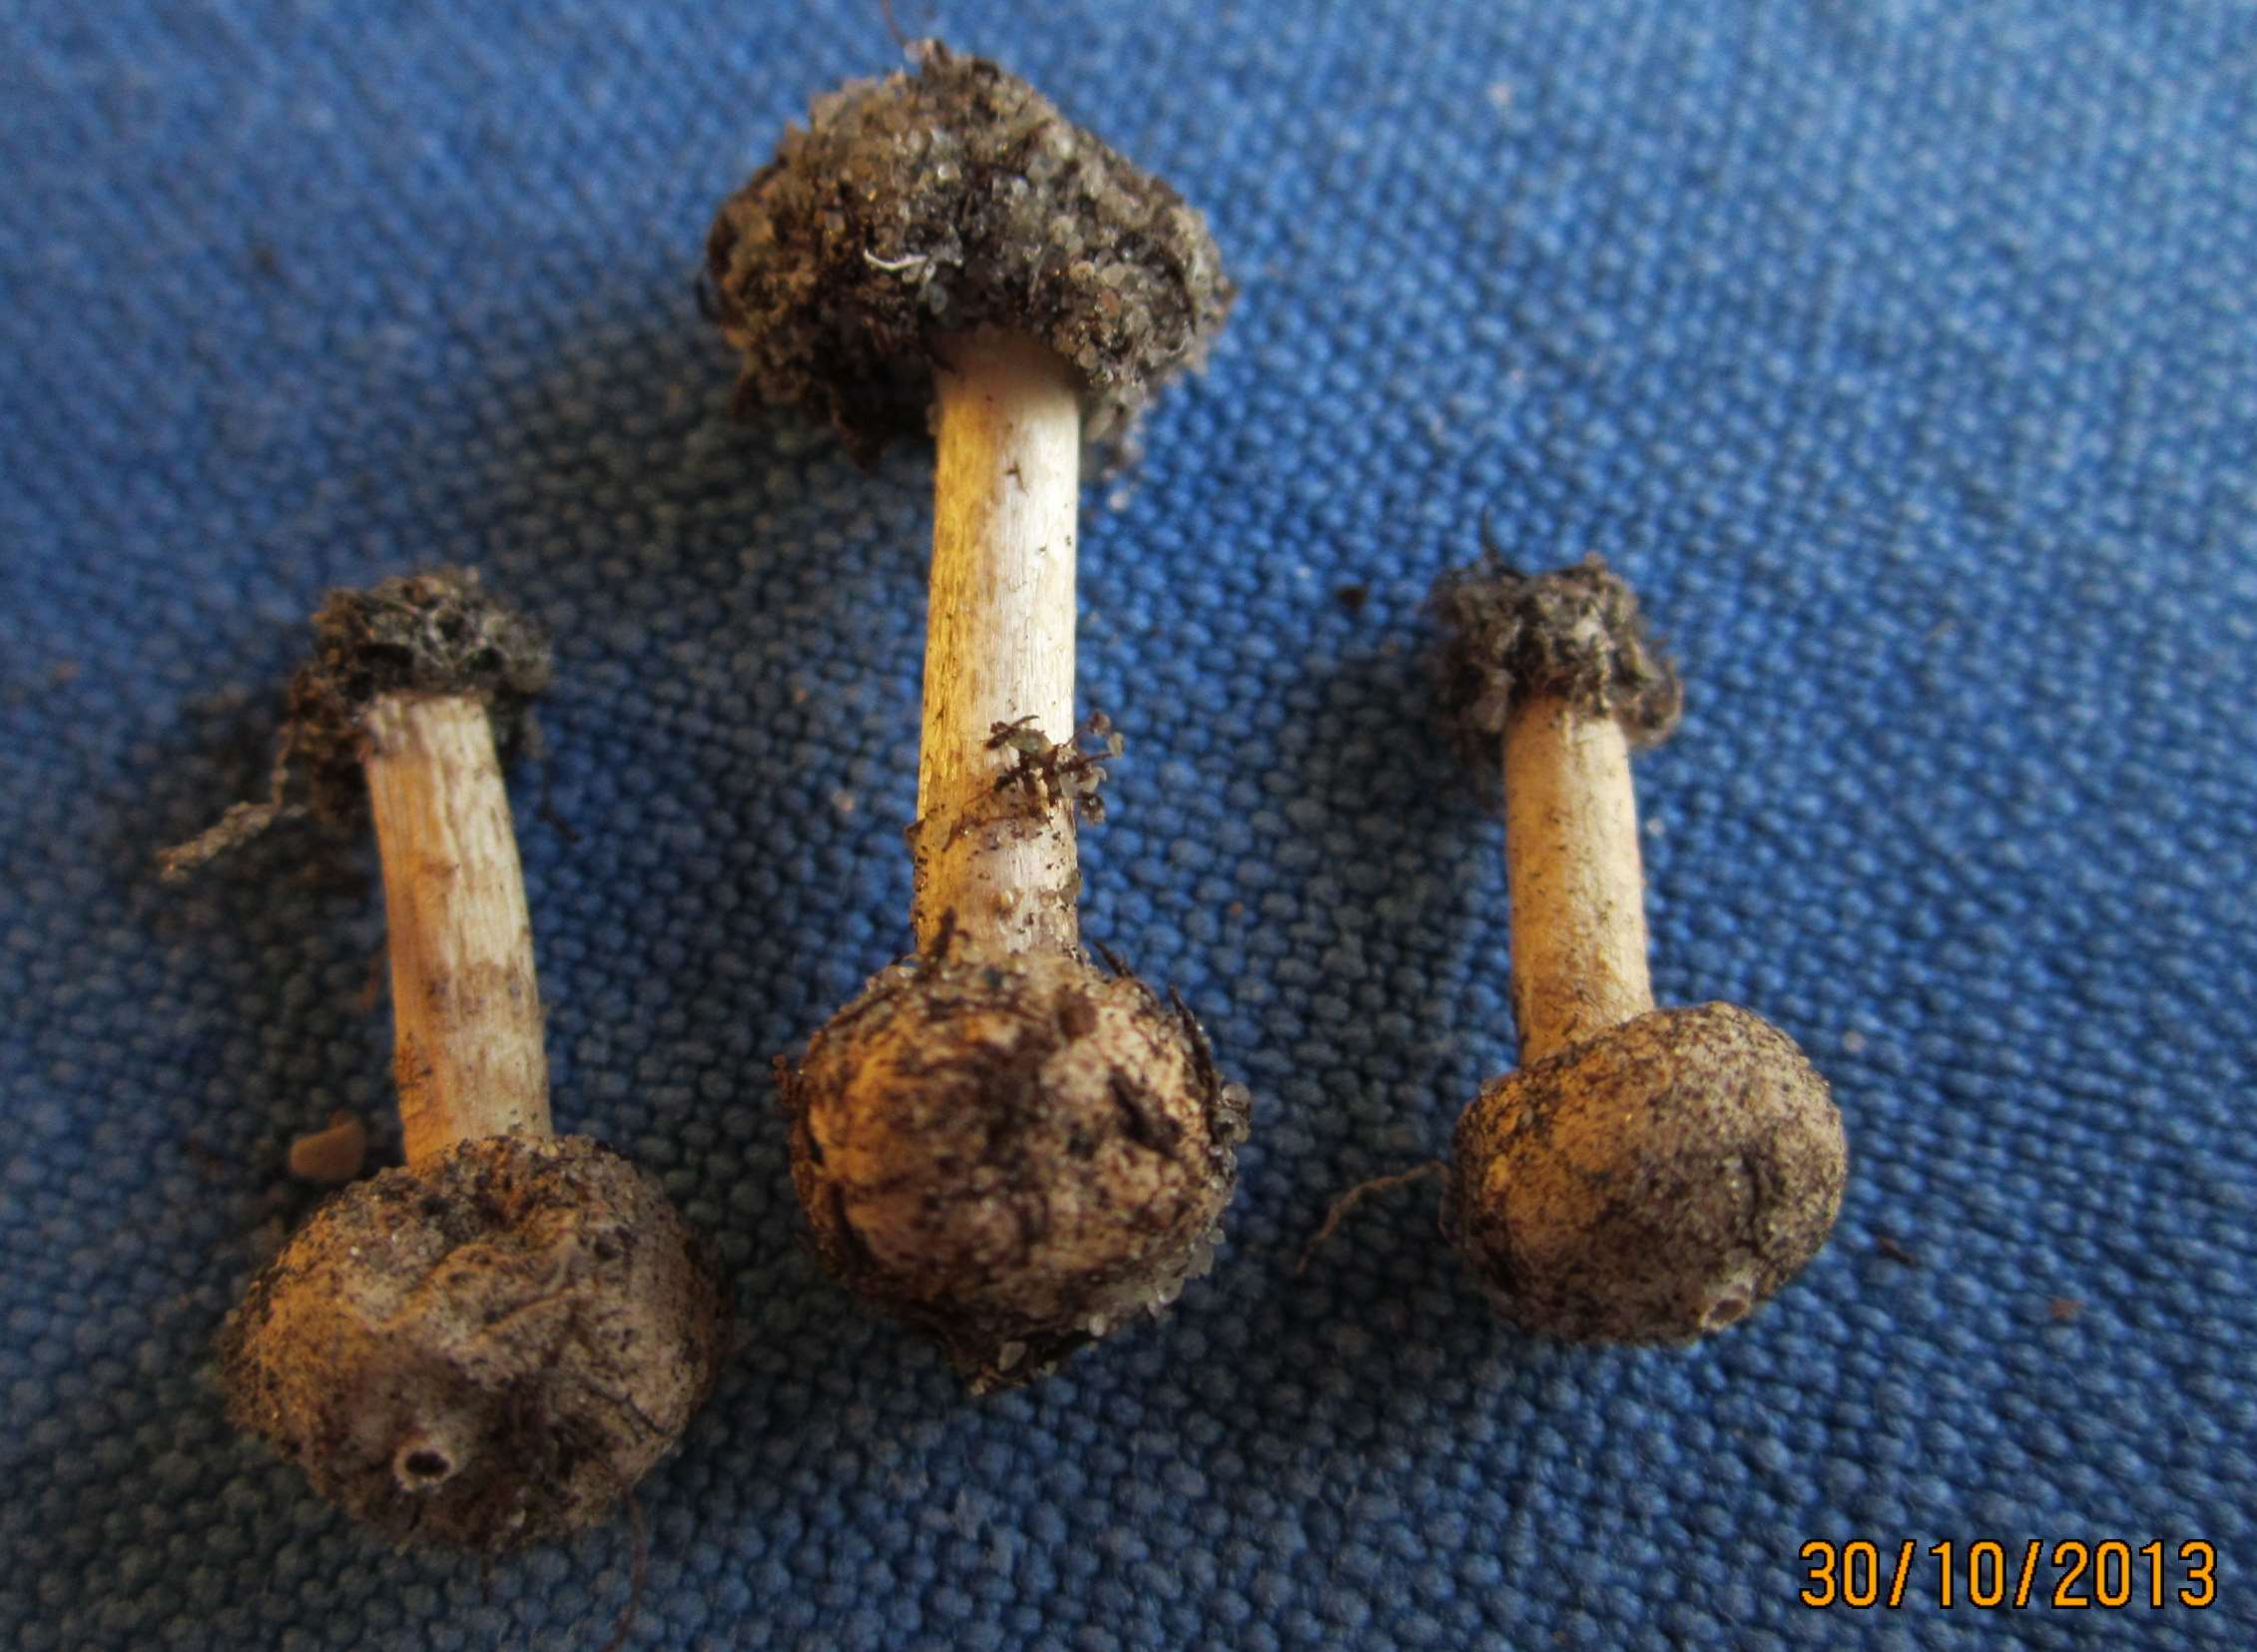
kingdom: Fungi
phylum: Basidiomycota
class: Agaricomycetes
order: Agaricales
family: Agaricaceae
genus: Tulostoma
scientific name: Tulostoma brumale
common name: vinter-stilkbovist
